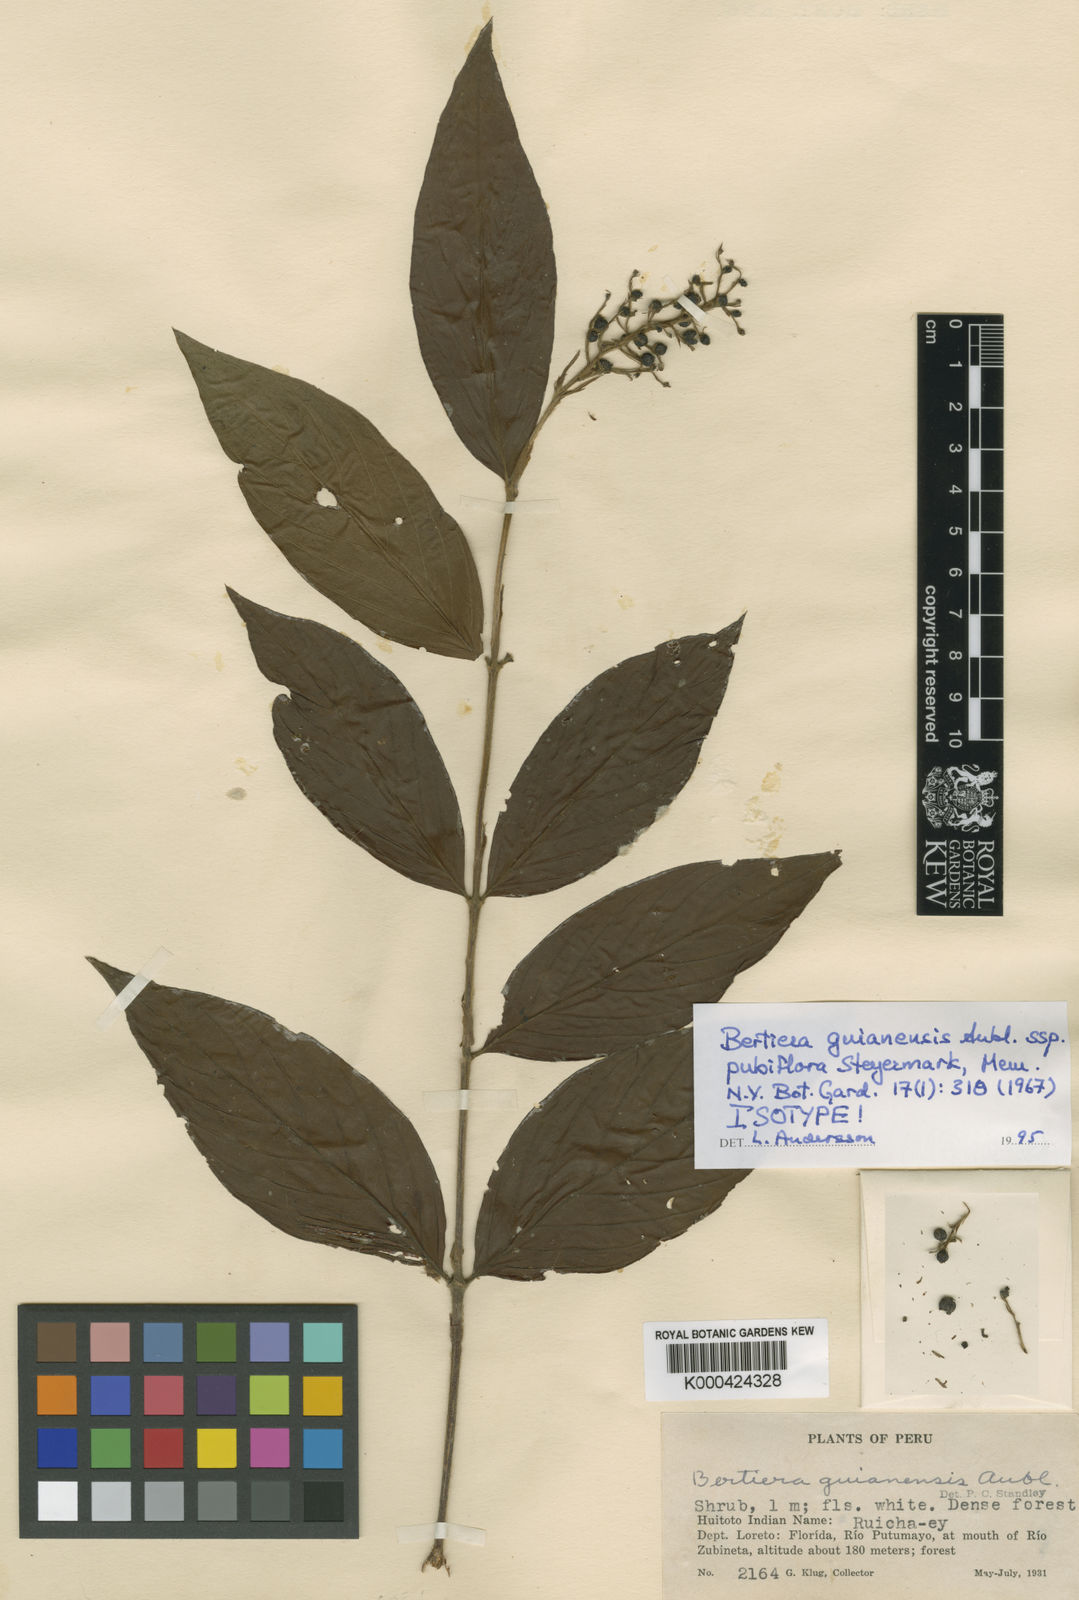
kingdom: Plantae
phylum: Tracheophyta
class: Magnoliopsida
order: Gentianales
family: Rubiaceae
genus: Bertiera
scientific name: Bertiera angustifolia
